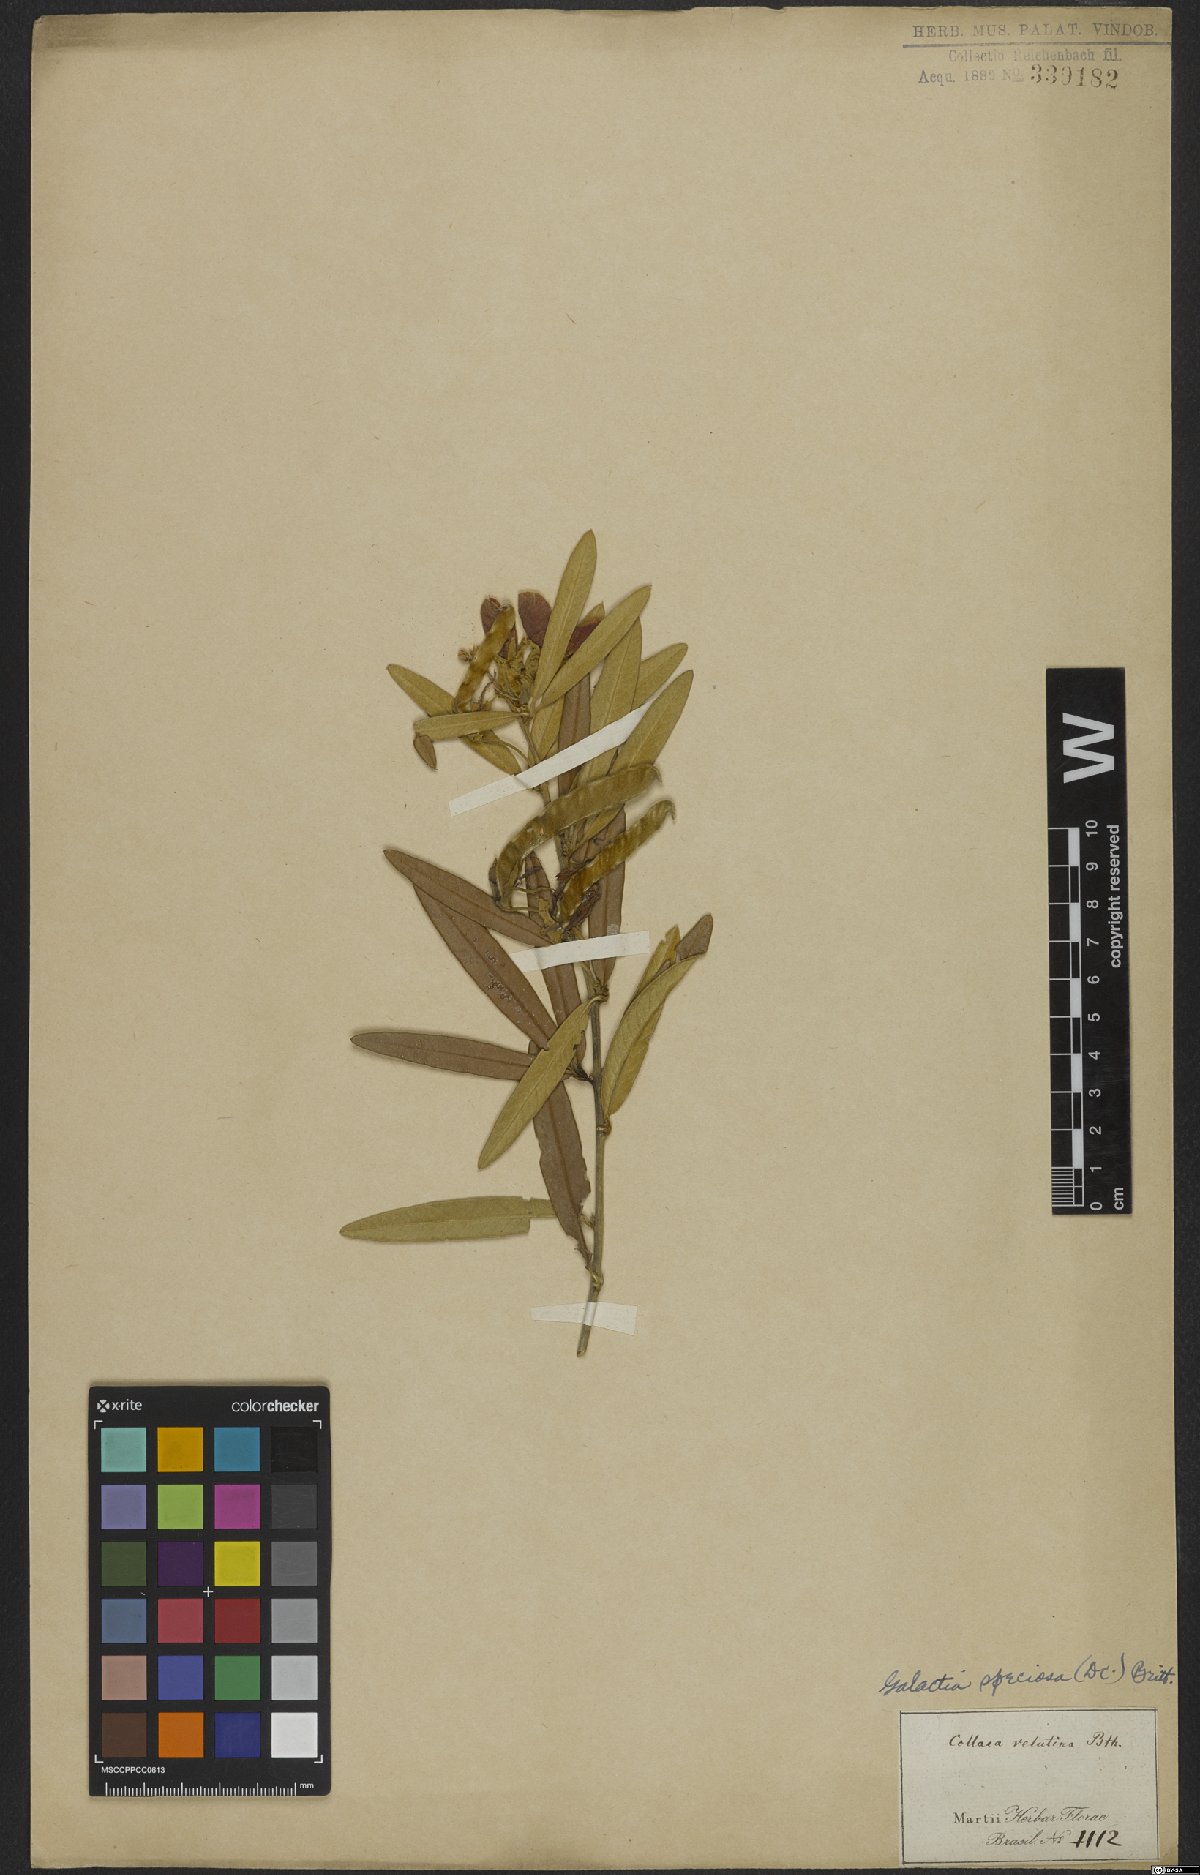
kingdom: Plantae
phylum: Tracheophyta
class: Magnoliopsida
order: Fabales
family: Fabaceae
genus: Collaea
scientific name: Collaea speciosa
